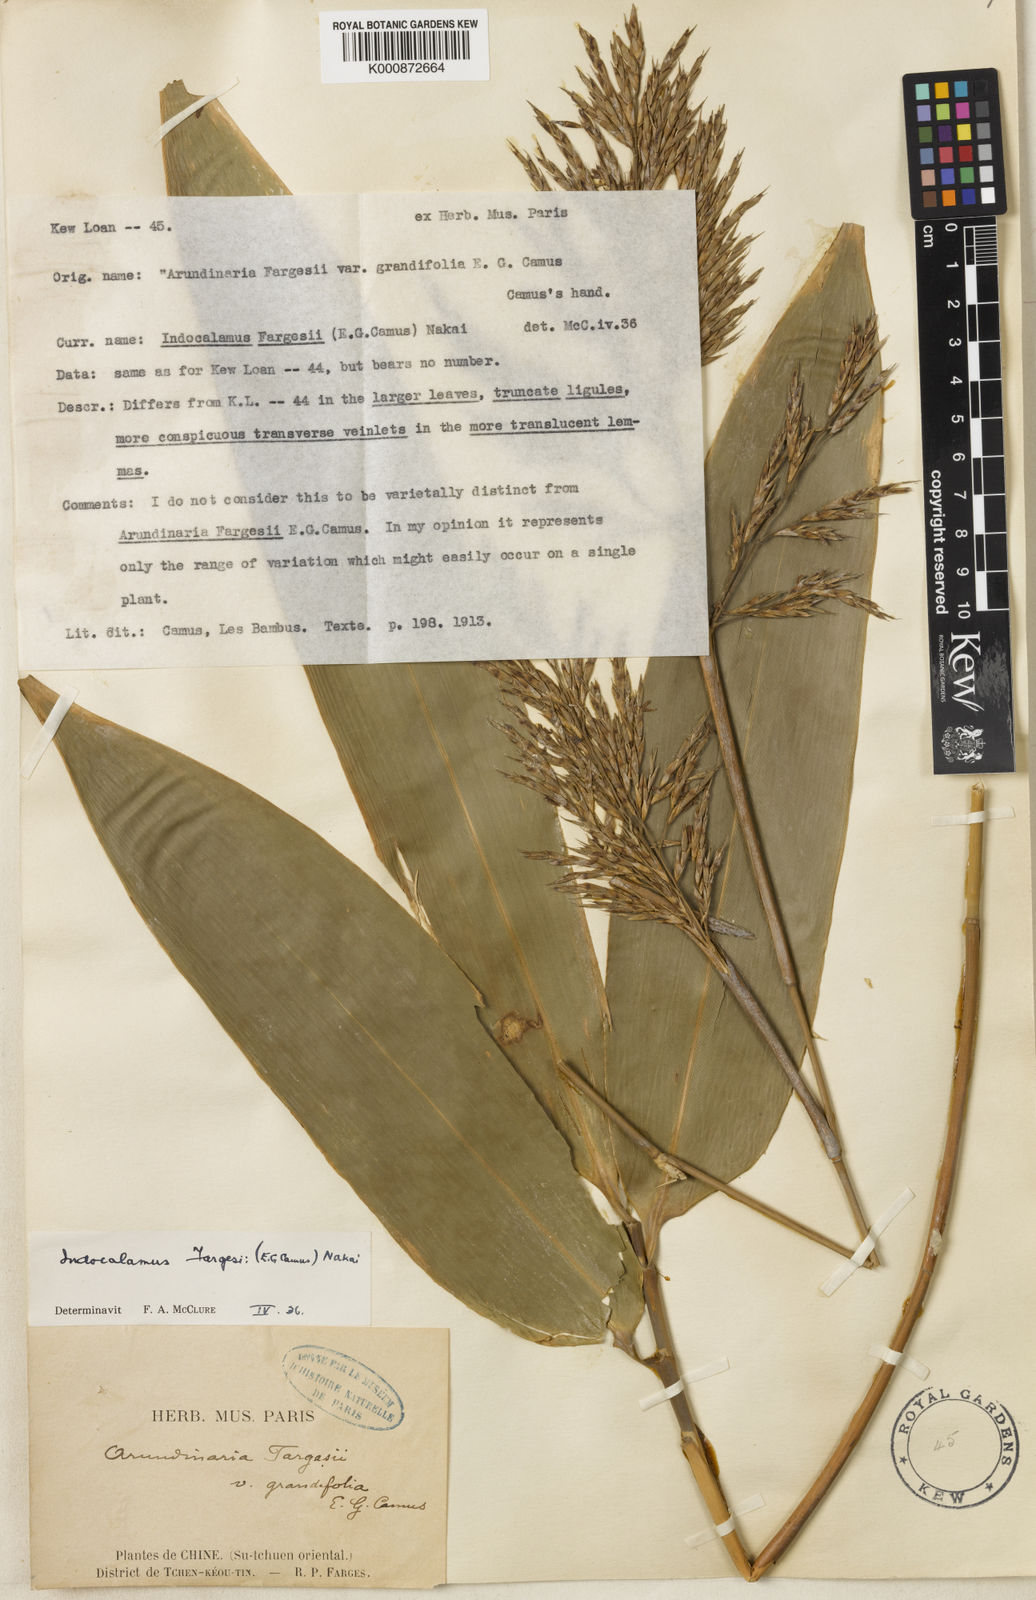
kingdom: Plantae
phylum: Tracheophyta
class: Liliopsida
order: Poales
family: Poaceae
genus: Bashania
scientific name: Bashania fargesii
